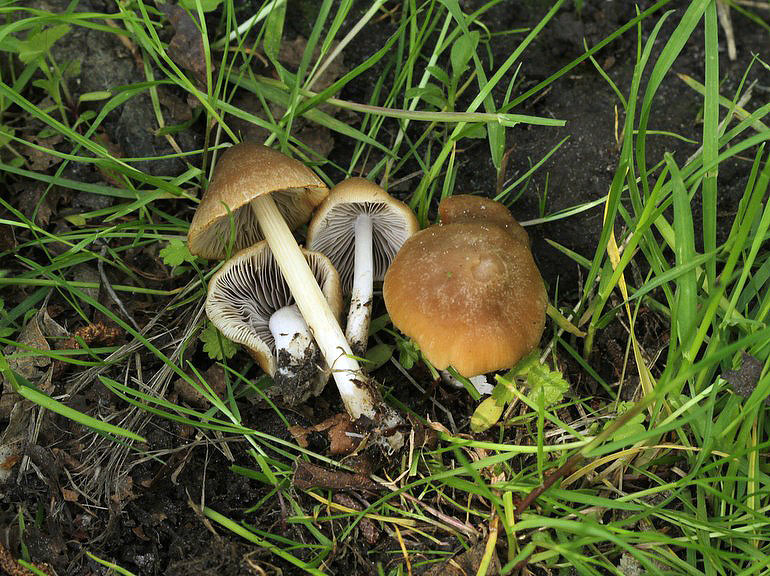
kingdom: Fungi
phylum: Basidiomycota
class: Agaricomycetes
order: Agaricales
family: Psathyrellaceae
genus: Psathyrella
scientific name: Psathyrella spadiceogrisea
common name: gråbrun mørkhat
